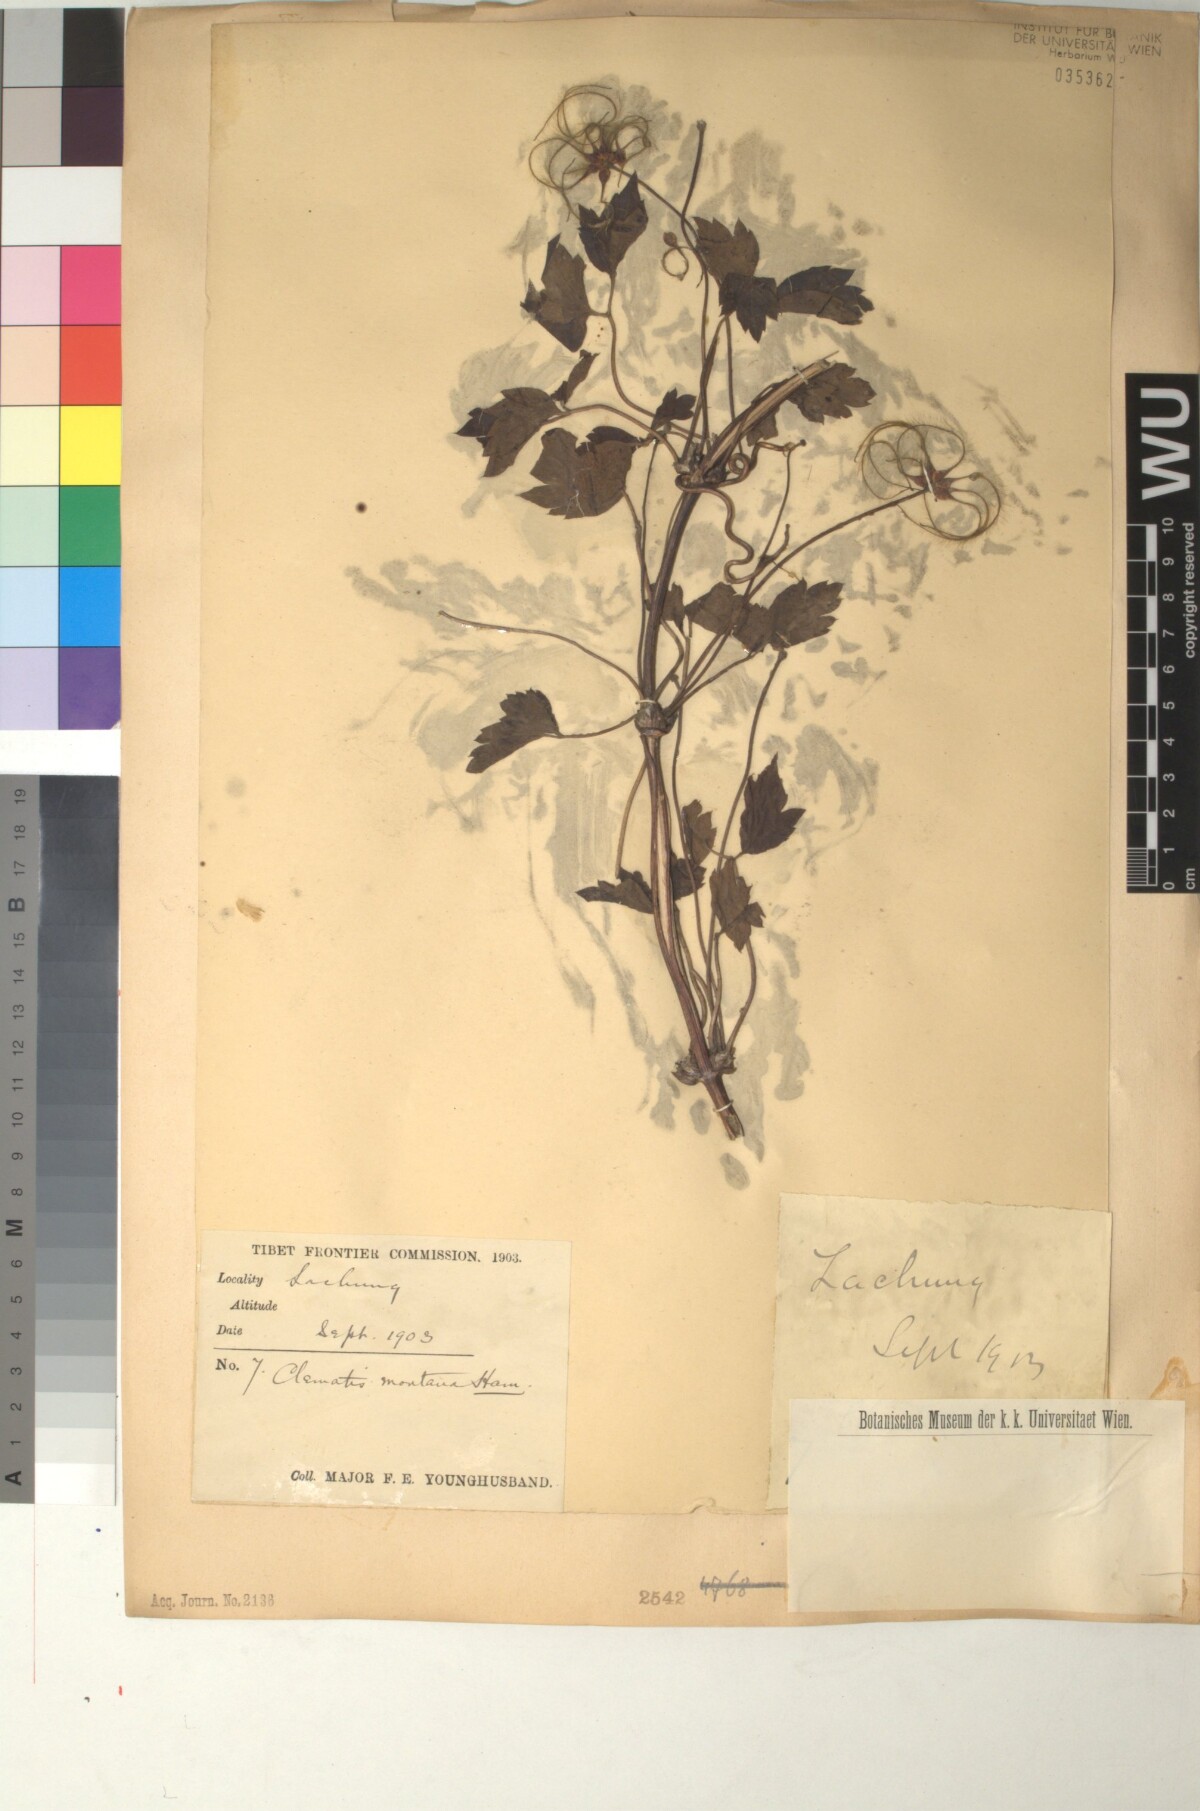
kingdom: Plantae
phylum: Tracheophyta
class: Magnoliopsida
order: Ranunculales
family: Ranunculaceae
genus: Clematis
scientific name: Clematis montana
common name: Himalayan clematis
